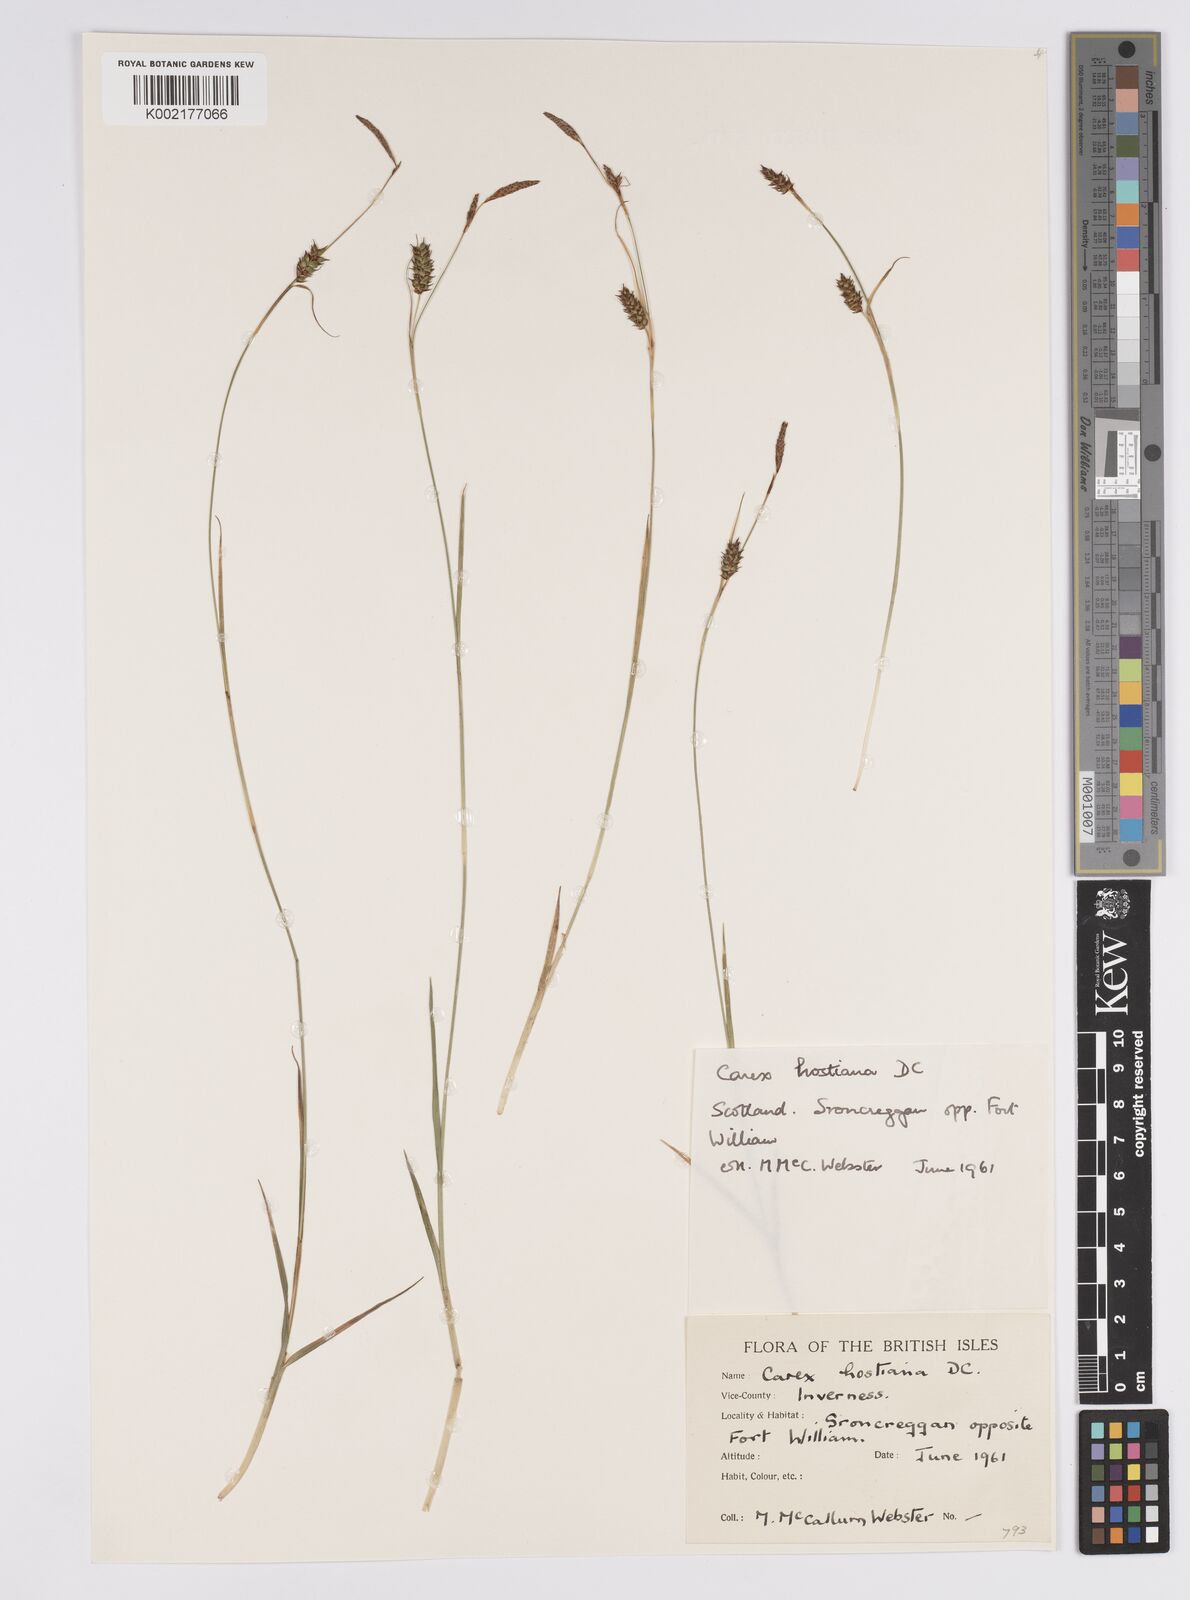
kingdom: Plantae
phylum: Tracheophyta
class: Liliopsida
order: Poales
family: Cyperaceae
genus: Carex
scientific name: Carex hostiana
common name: Tawny sedge
